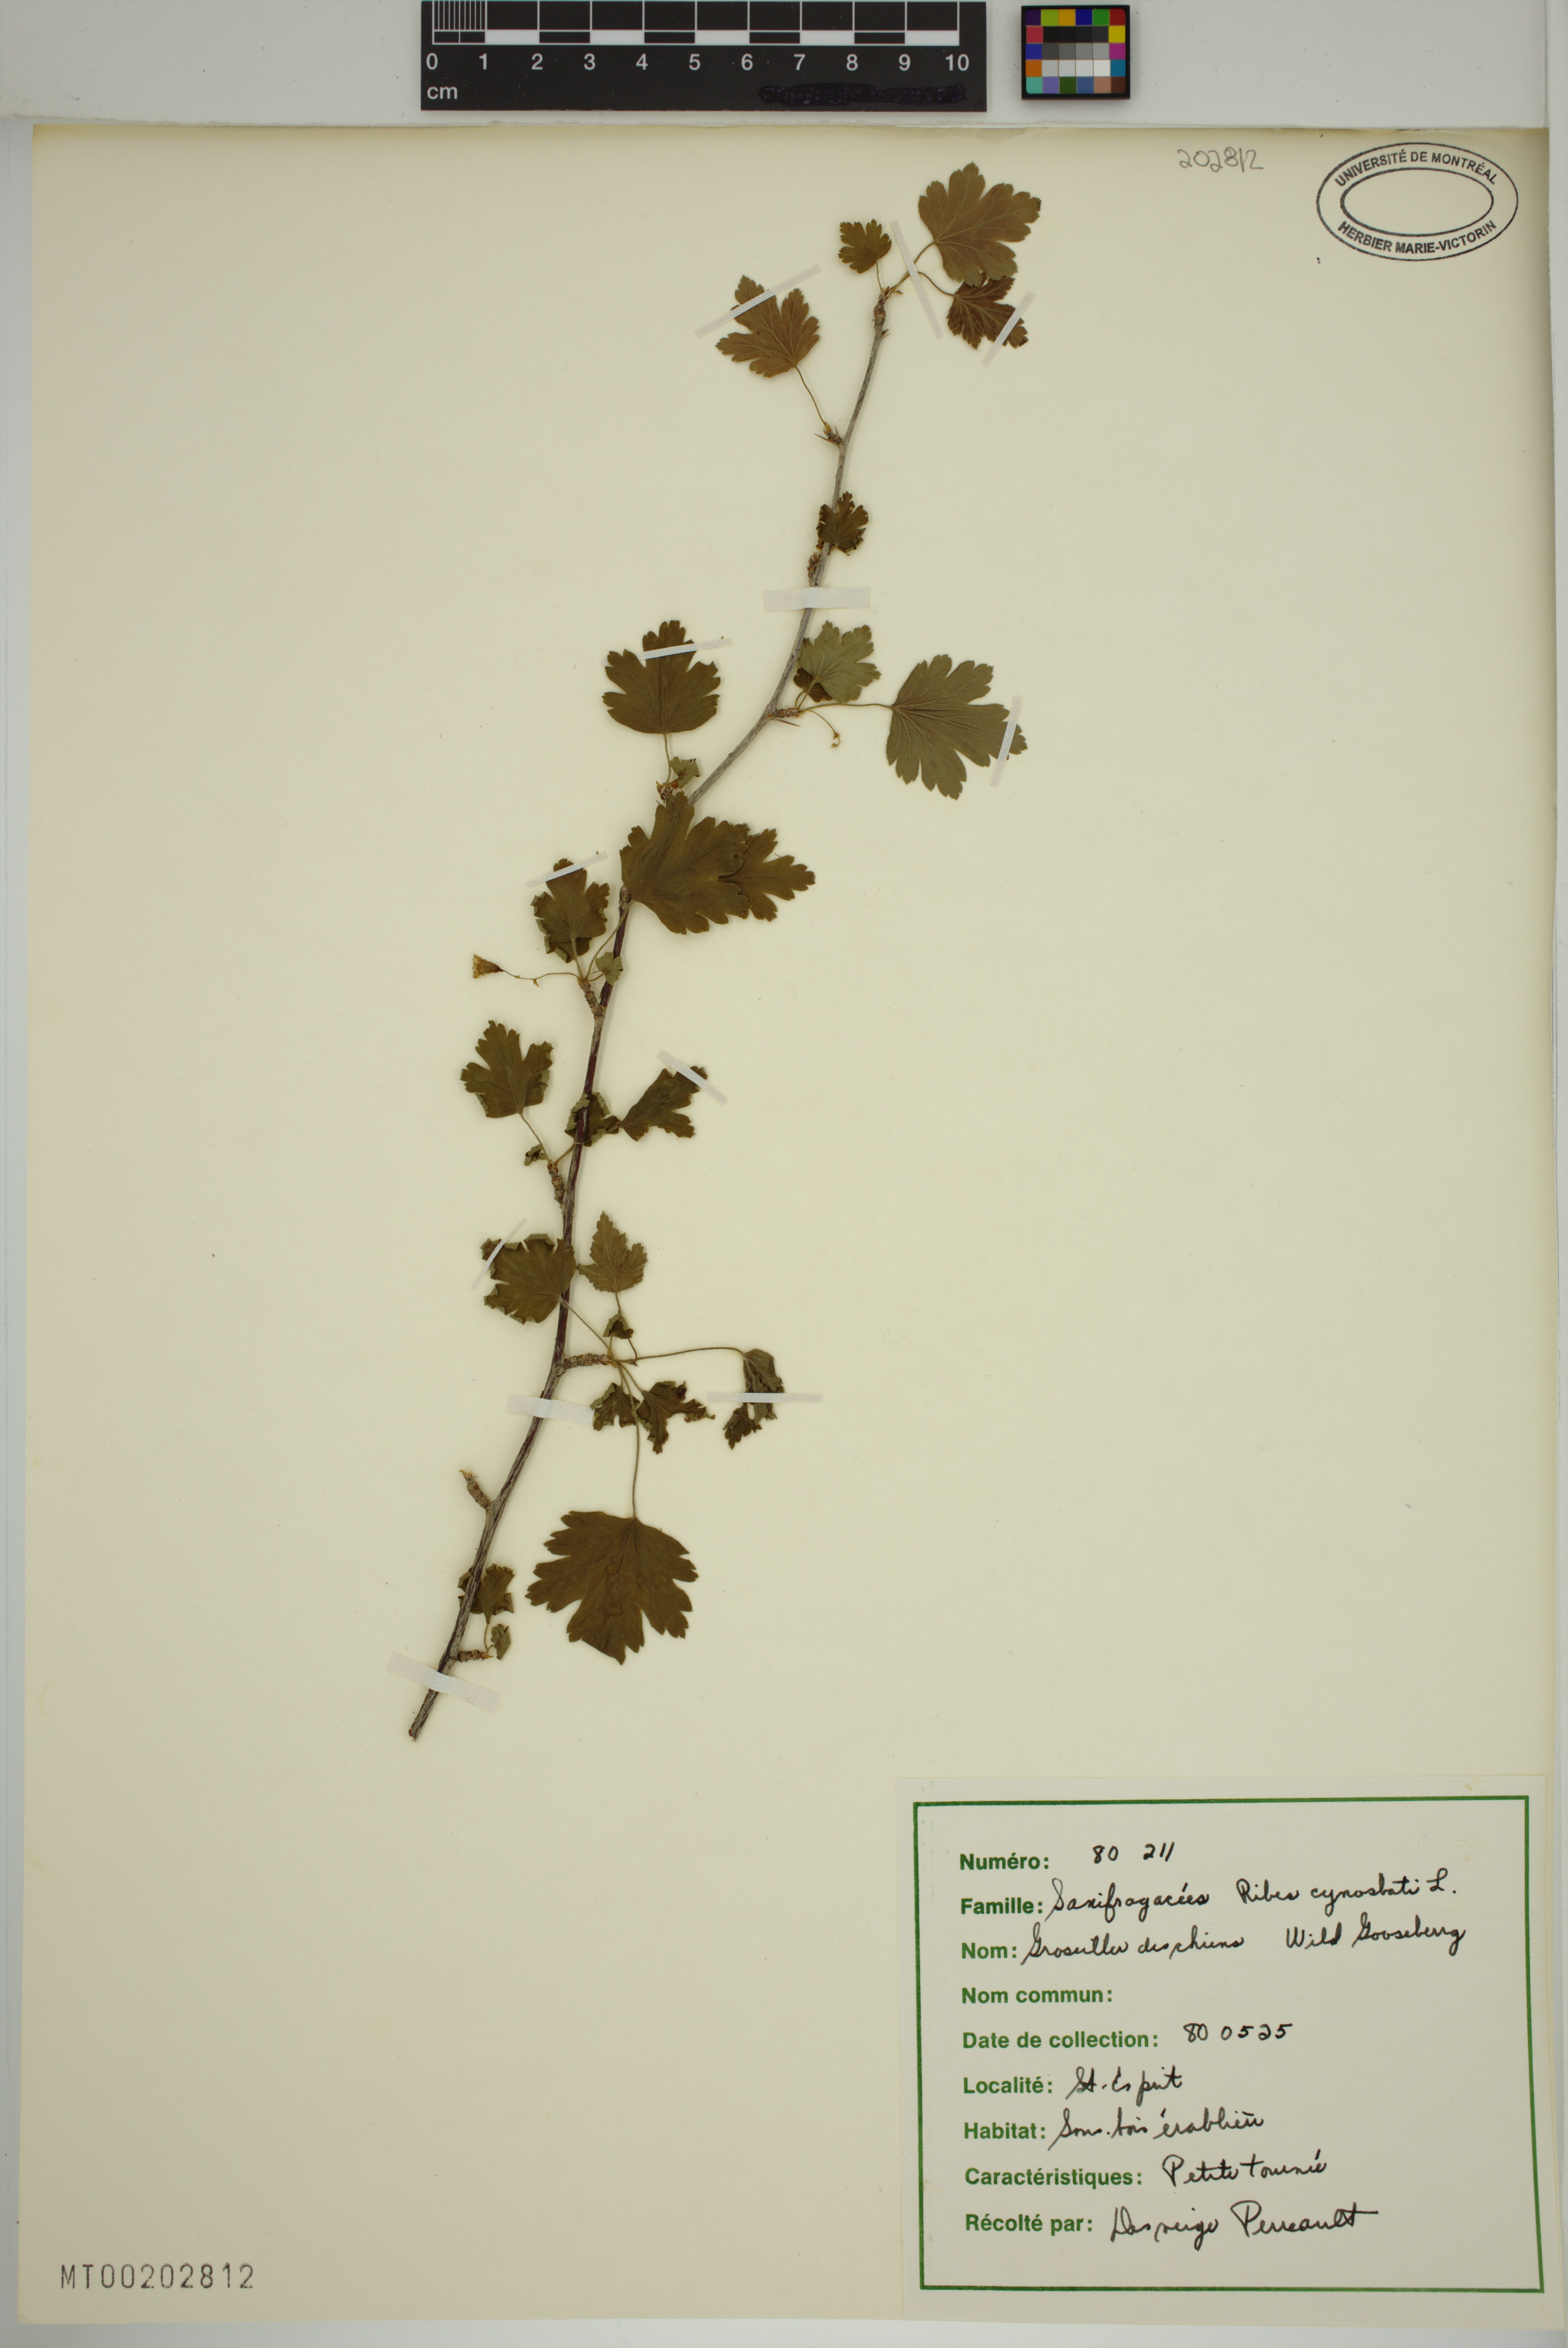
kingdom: Plantae
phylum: Tracheophyta
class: Magnoliopsida
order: Saxifragales
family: Grossulariaceae
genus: Ribes
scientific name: Ribes cynosbati
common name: American gooseberry
